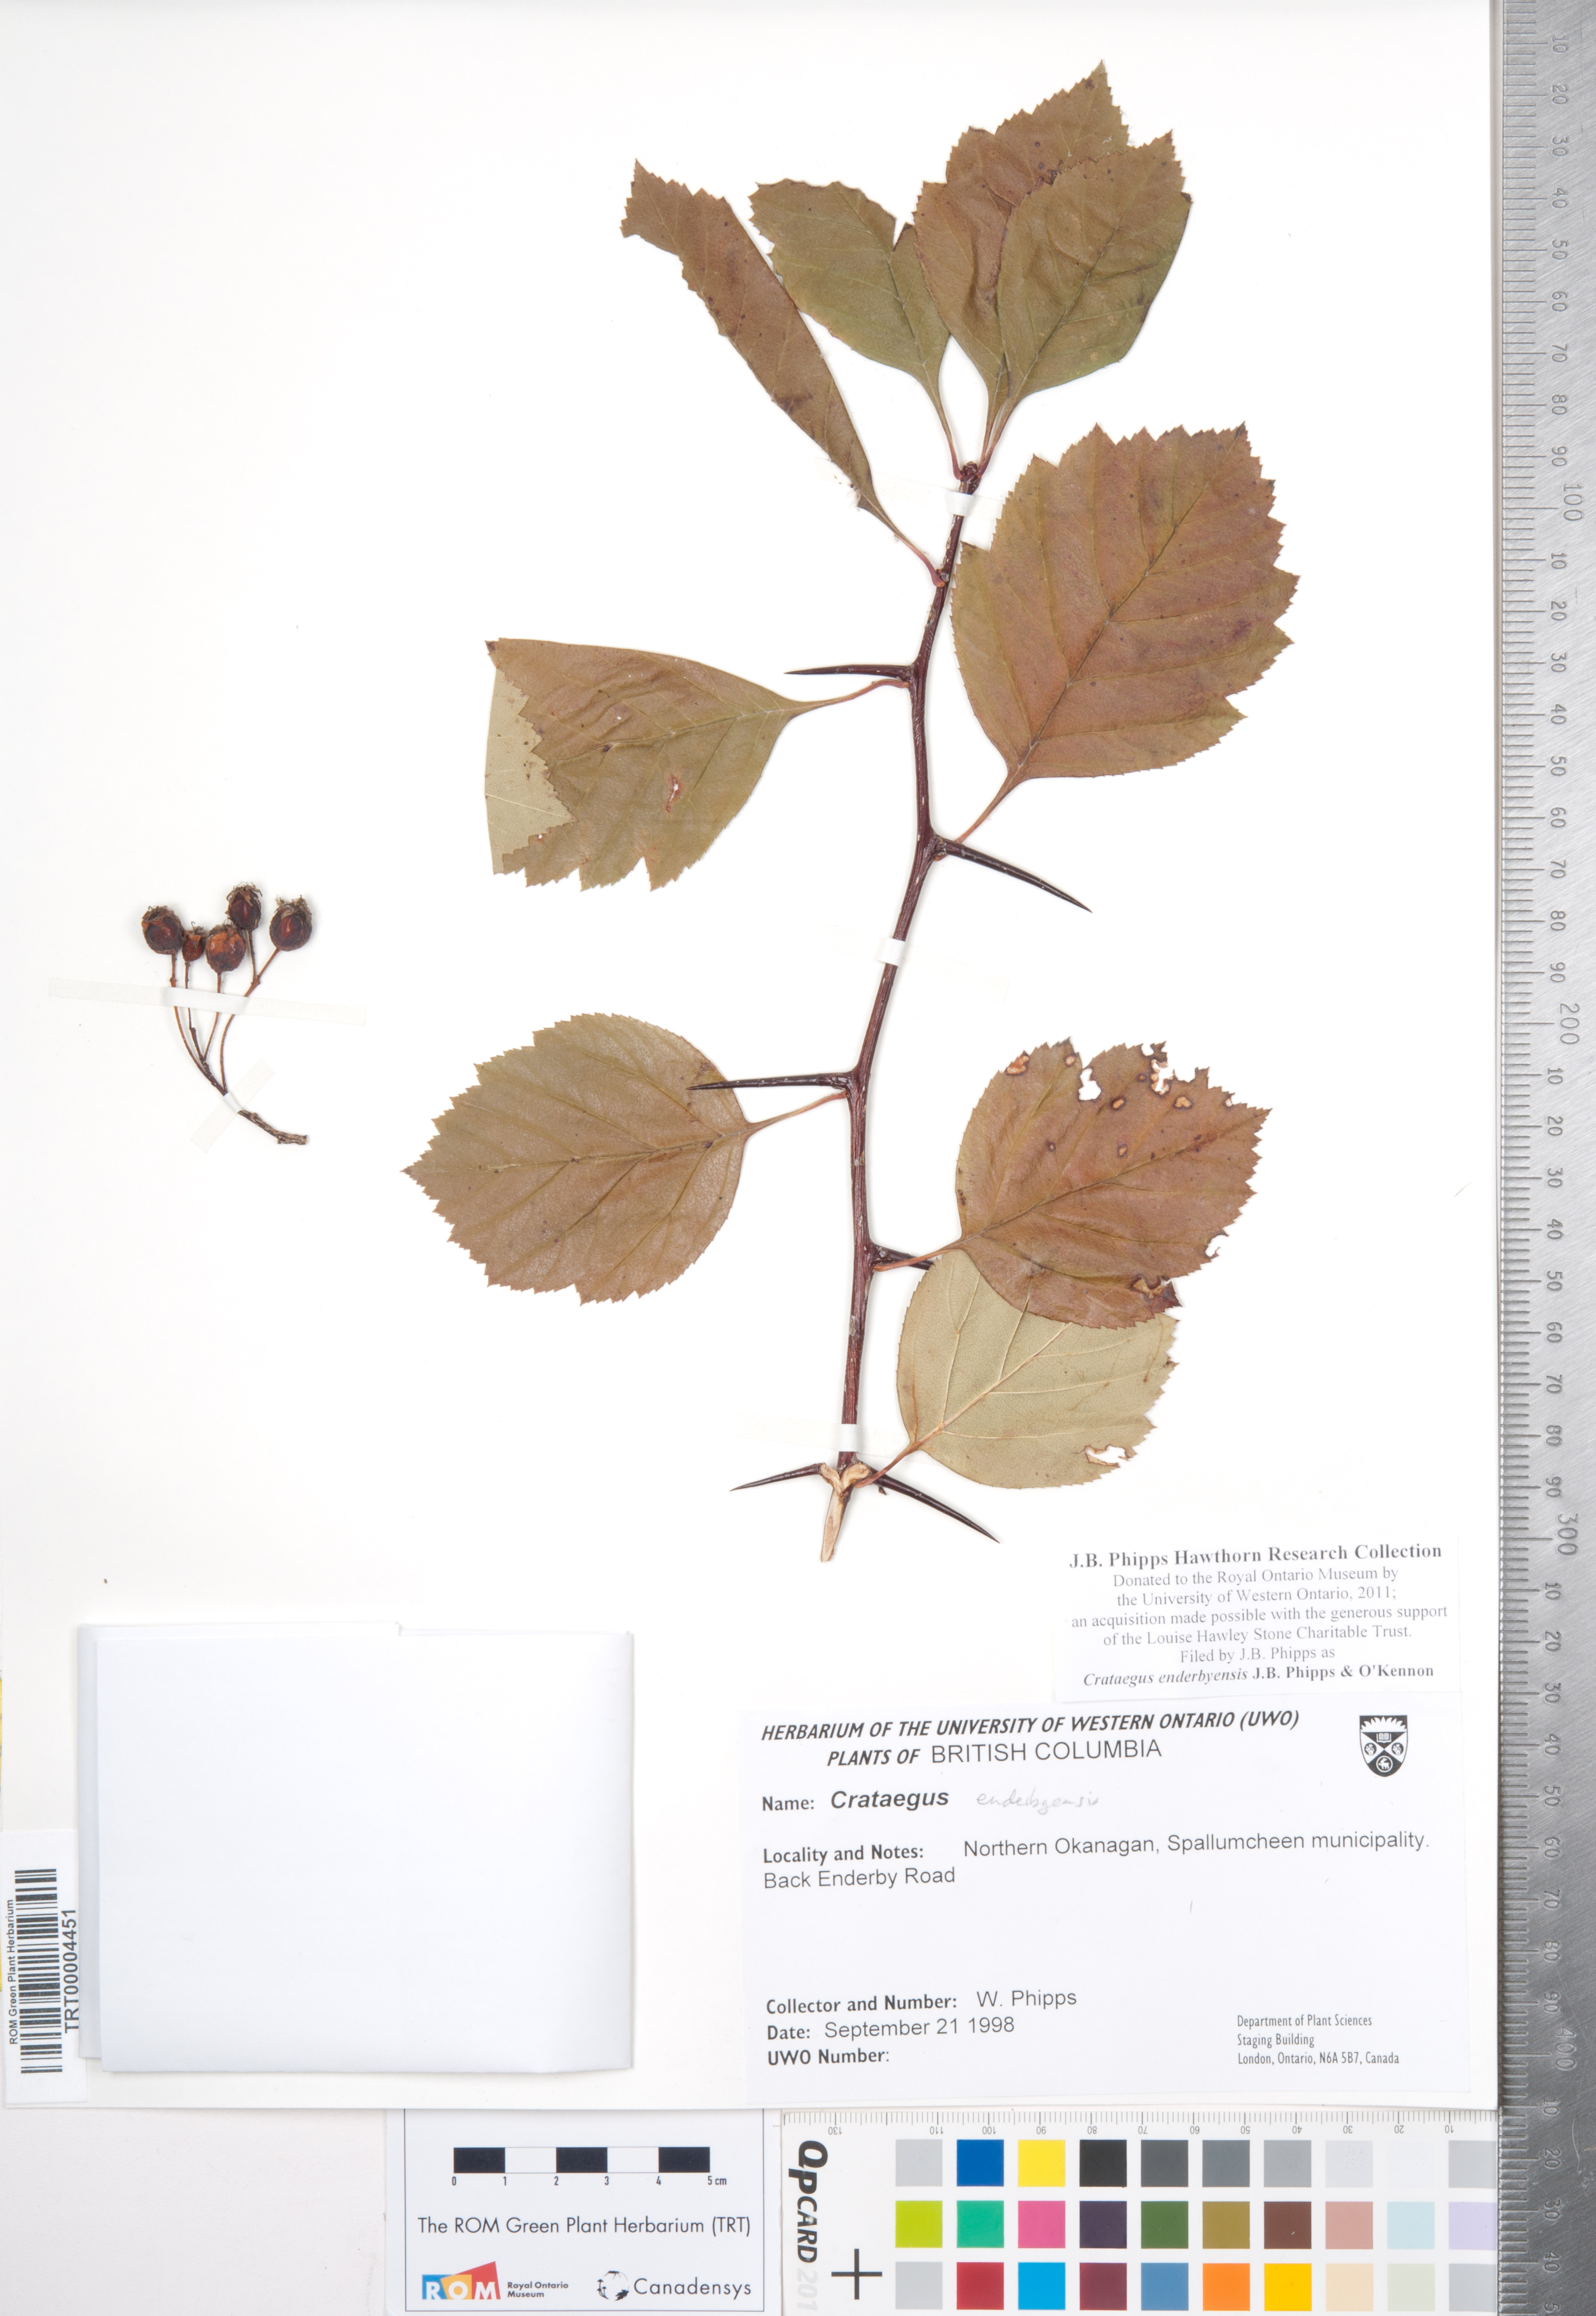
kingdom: Plantae
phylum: Tracheophyta
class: Magnoliopsida
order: Rosales
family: Rosaceae
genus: Crataegus
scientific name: Crataegus enderbyensis
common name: Enderby hawthorn
